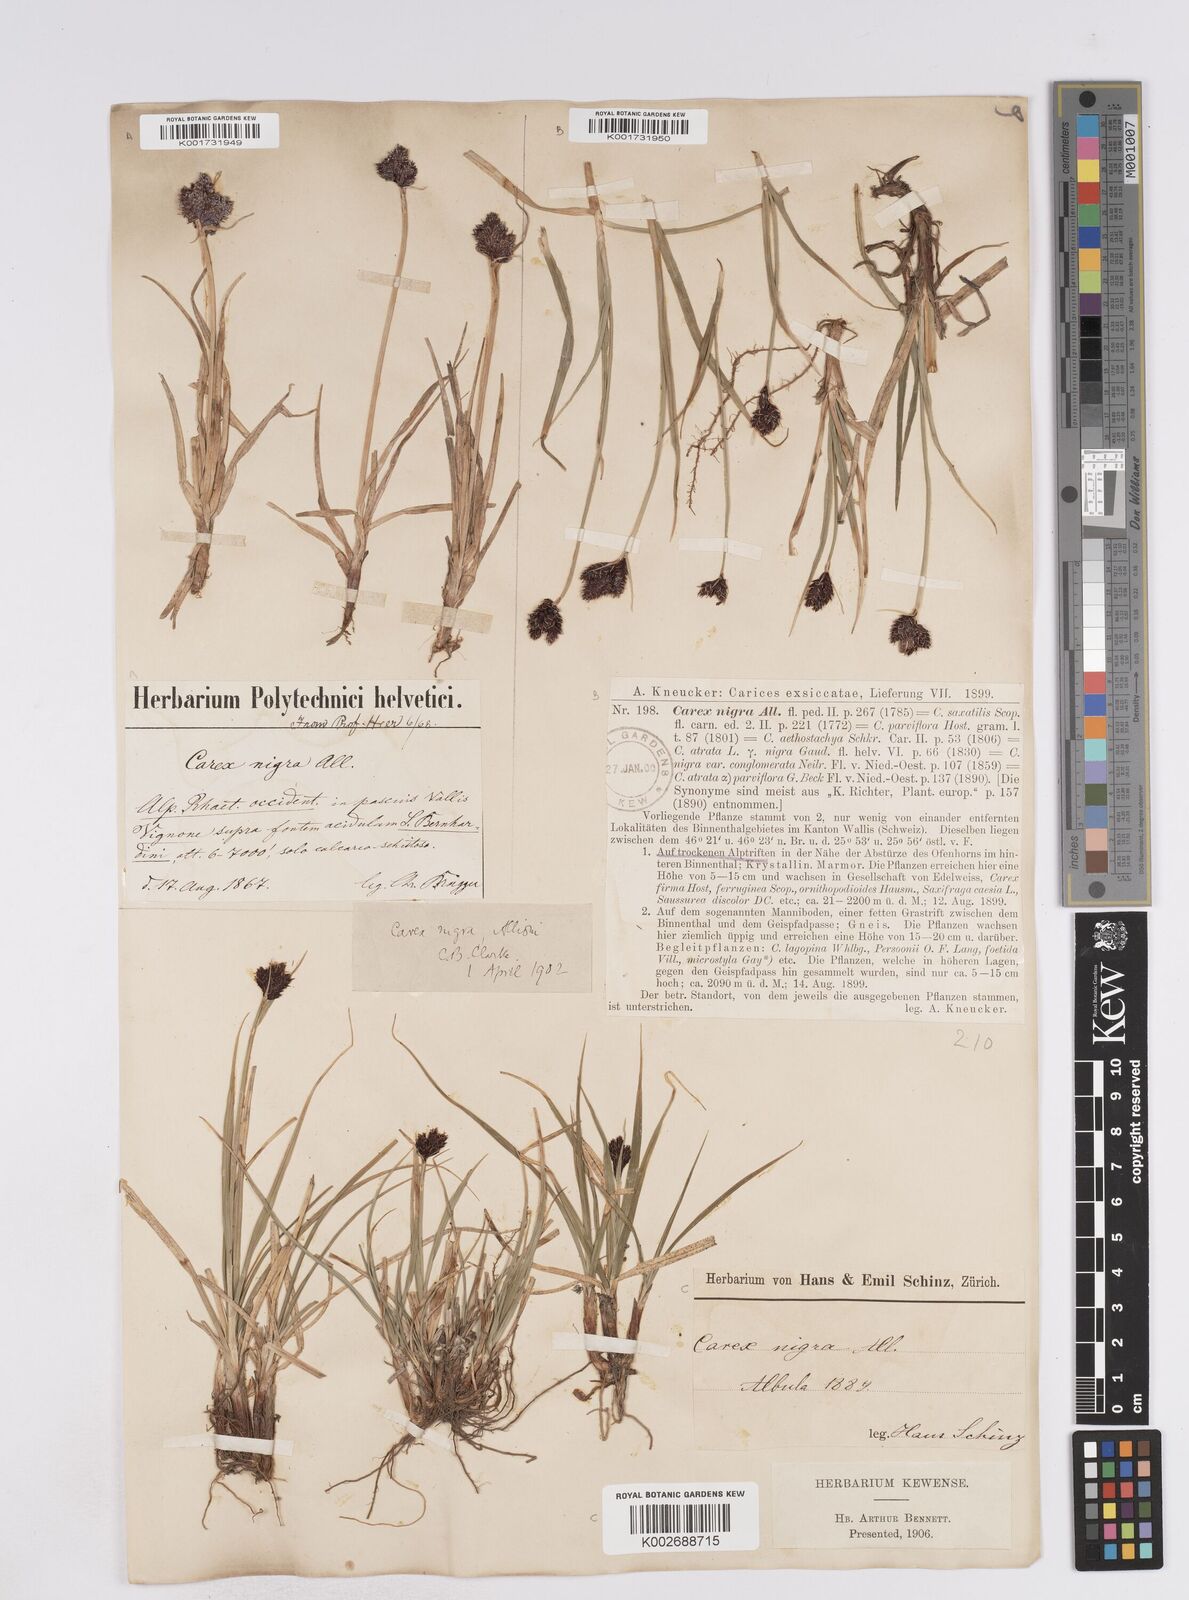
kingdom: Plantae
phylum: Tracheophyta
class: Liliopsida
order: Poales
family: Cyperaceae
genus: Carex
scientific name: Carex parviflora
